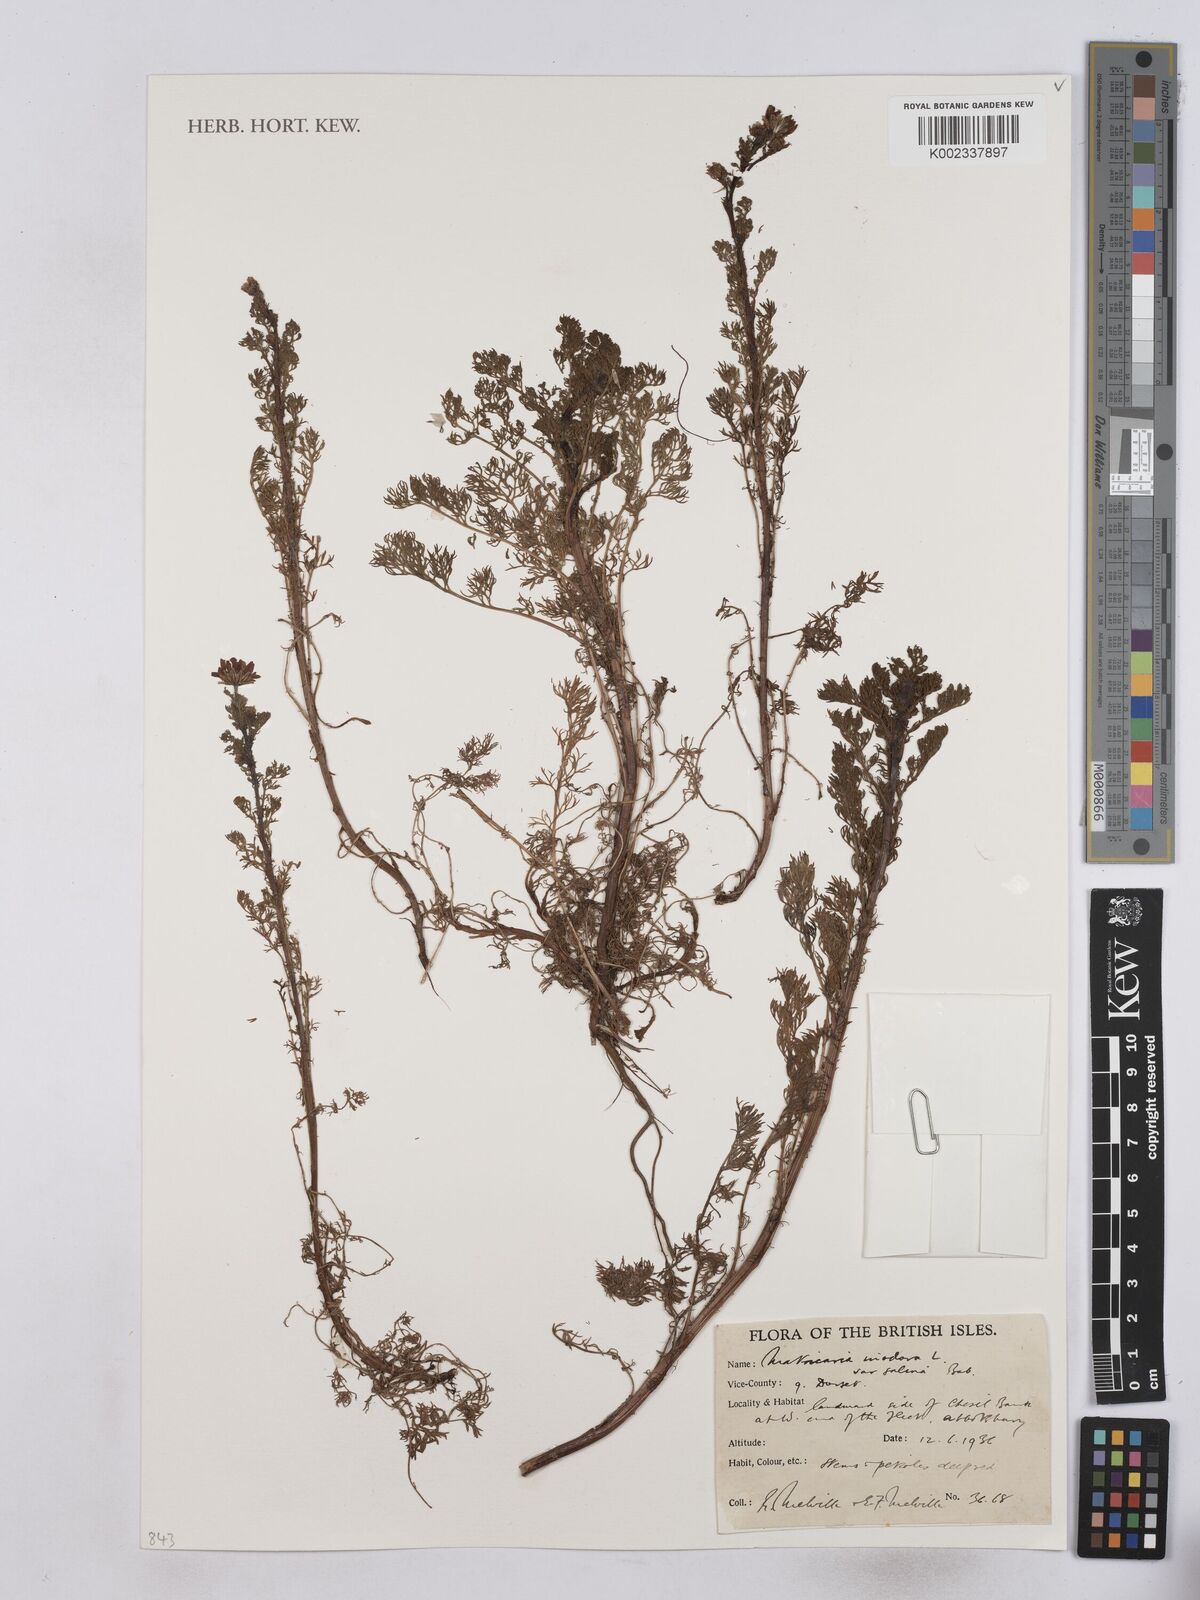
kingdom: Plantae
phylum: Tracheophyta
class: Magnoliopsida
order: Asterales
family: Asteraceae
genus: Tripleurospermum
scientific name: Tripleurospermum maritimum
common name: Sea mayweed
